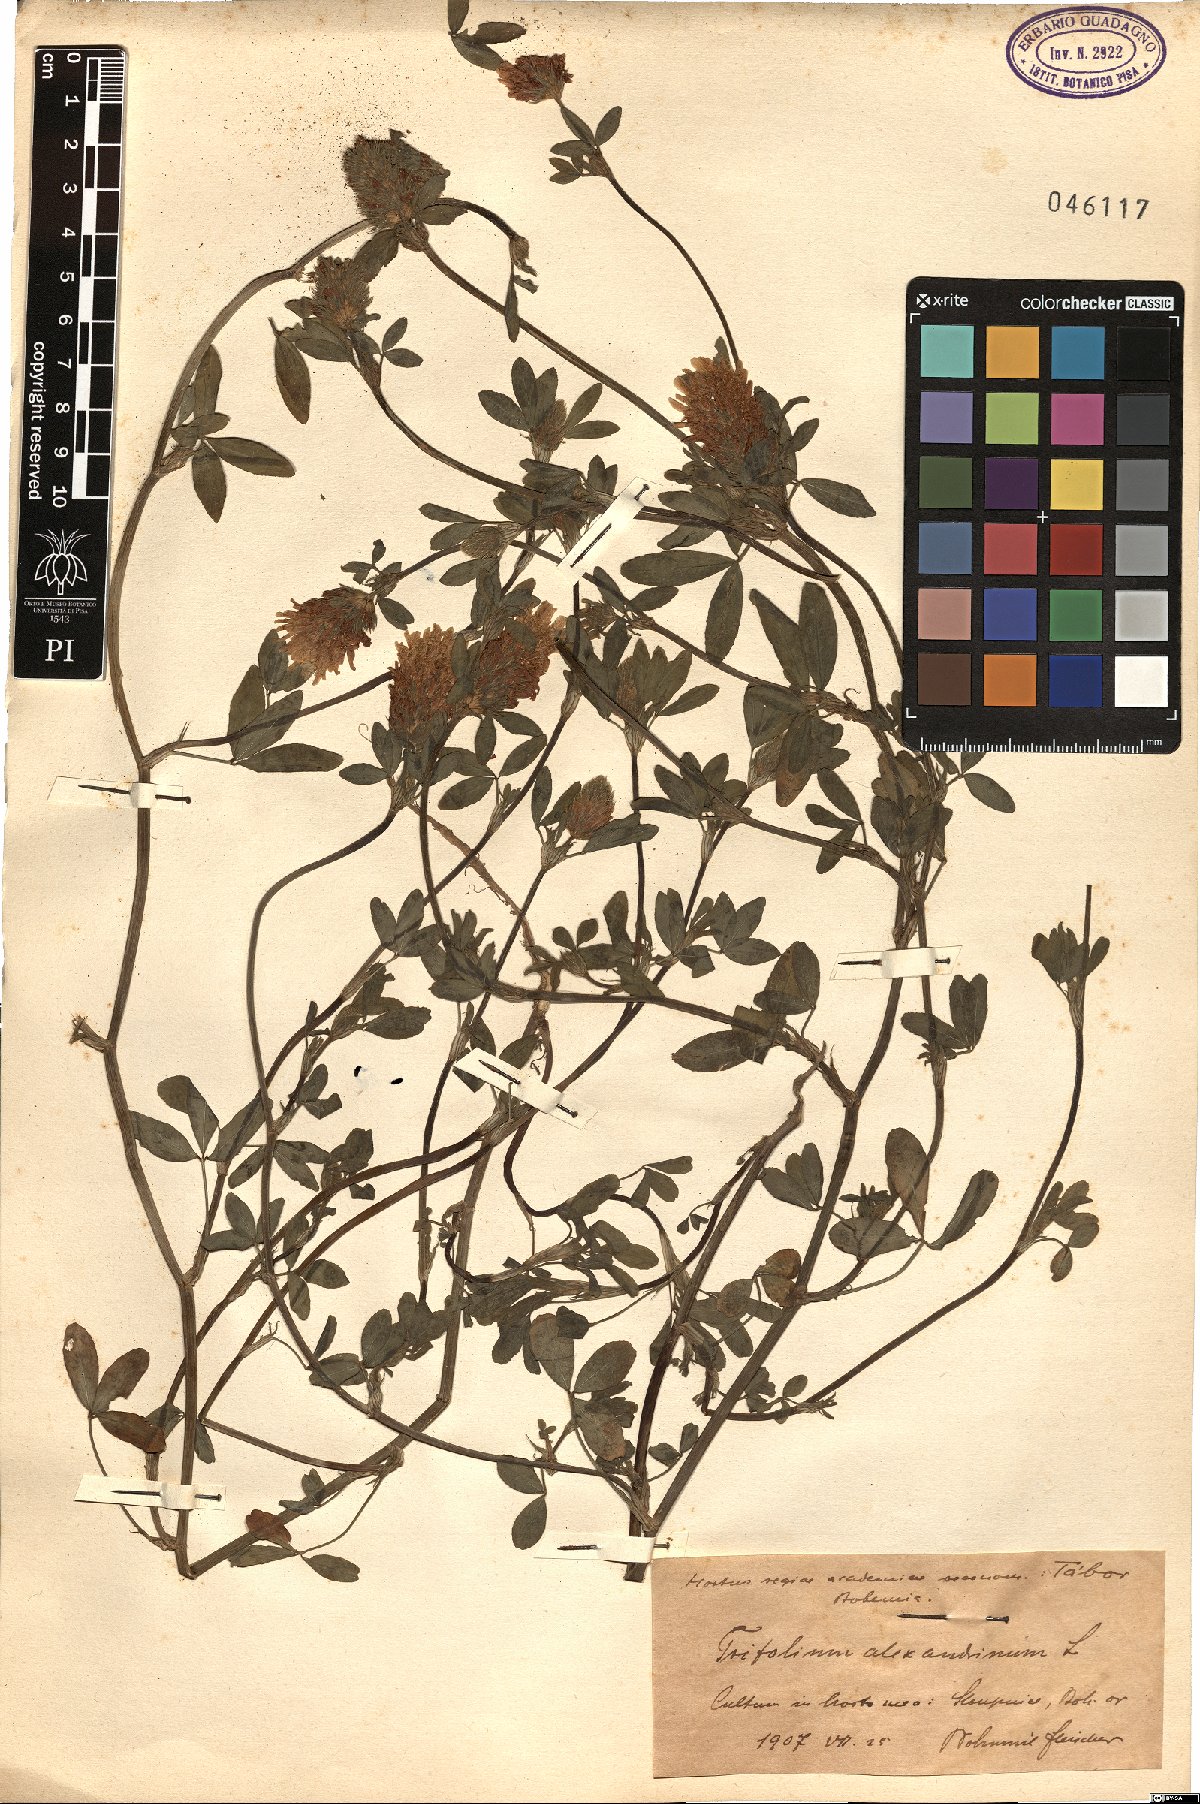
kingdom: Plantae
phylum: Tracheophyta
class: Magnoliopsida
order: Fabales
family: Fabaceae
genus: Trifolium
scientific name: Trifolium alexandrinum
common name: Egyptian clover
